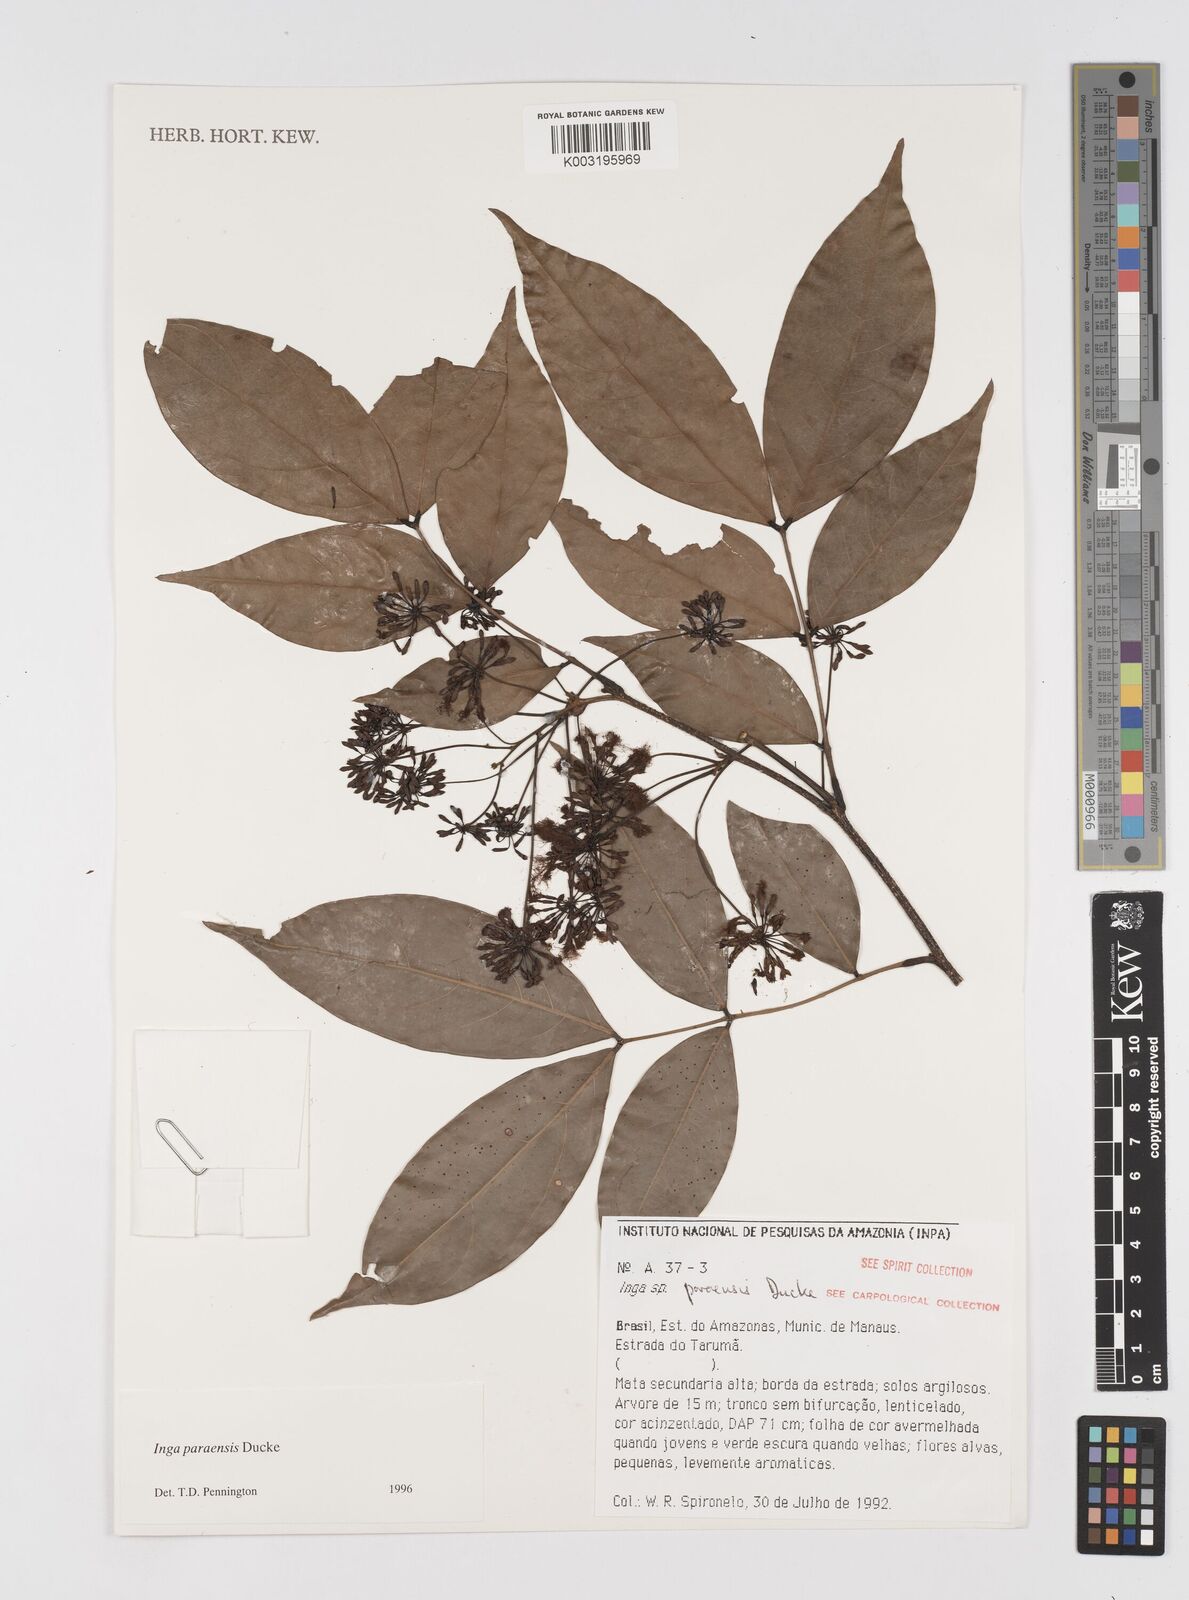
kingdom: Plantae
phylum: Tracheophyta
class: Magnoliopsida
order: Fabales
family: Fabaceae
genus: Inga
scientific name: Inga paraensis
